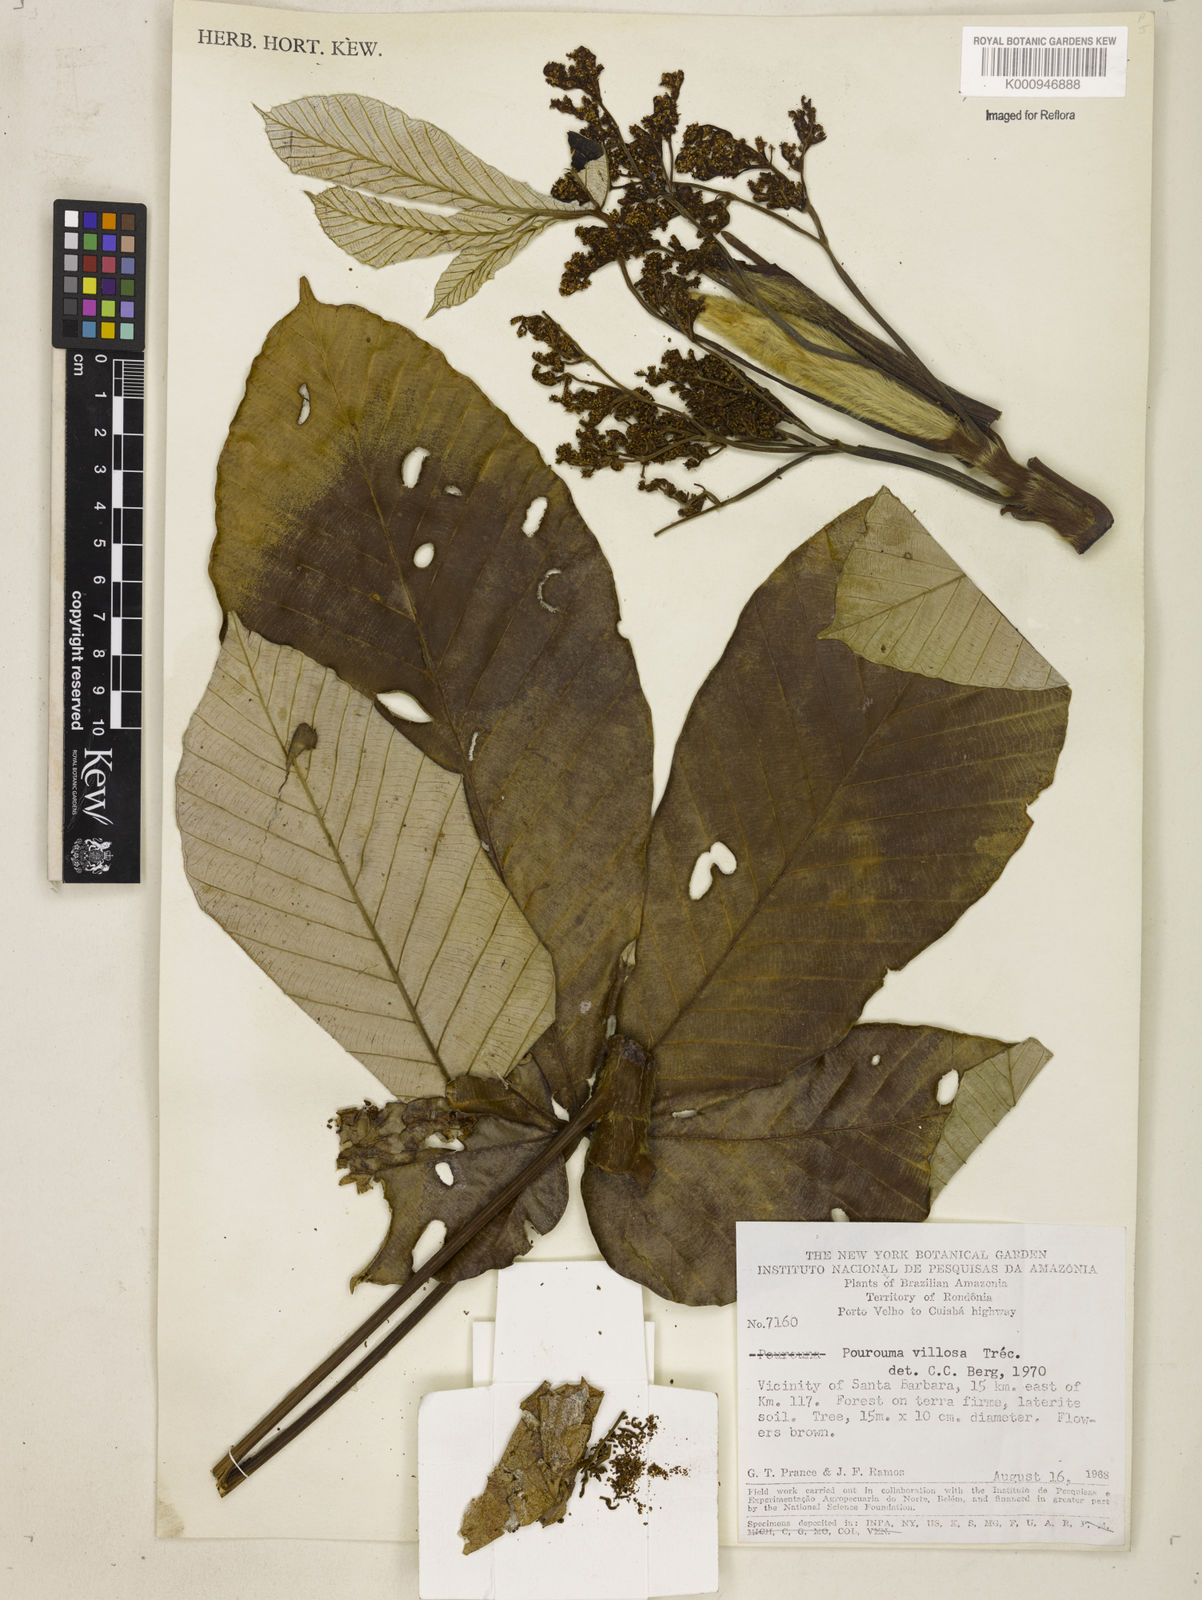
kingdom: Plantae
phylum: Tracheophyta
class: Magnoliopsida
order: Rosales
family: Urticaceae
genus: Pourouma
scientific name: Pourouma
